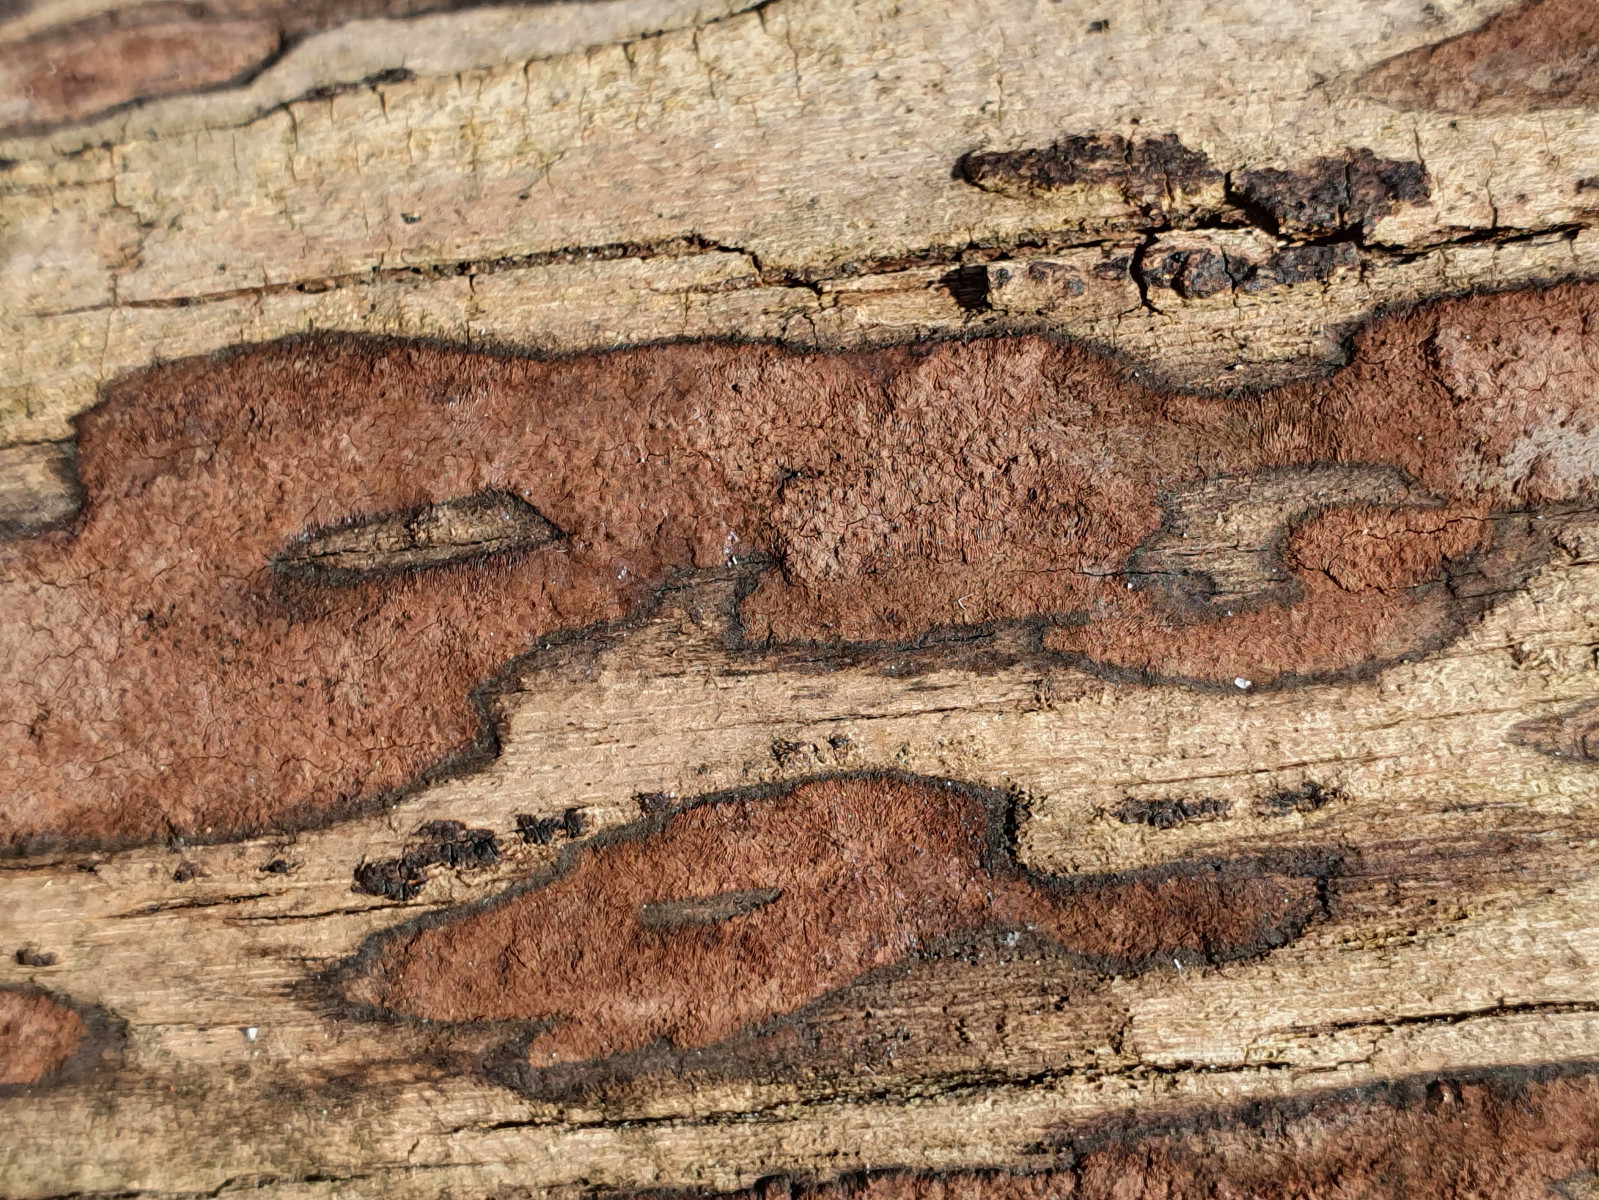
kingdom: Fungi
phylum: Ascomycota
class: Sordariomycetes
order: Xylariales
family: Hypoxylaceae
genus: Hypoxylon
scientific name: Hypoxylon petriniae
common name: nedsænket kulbær
